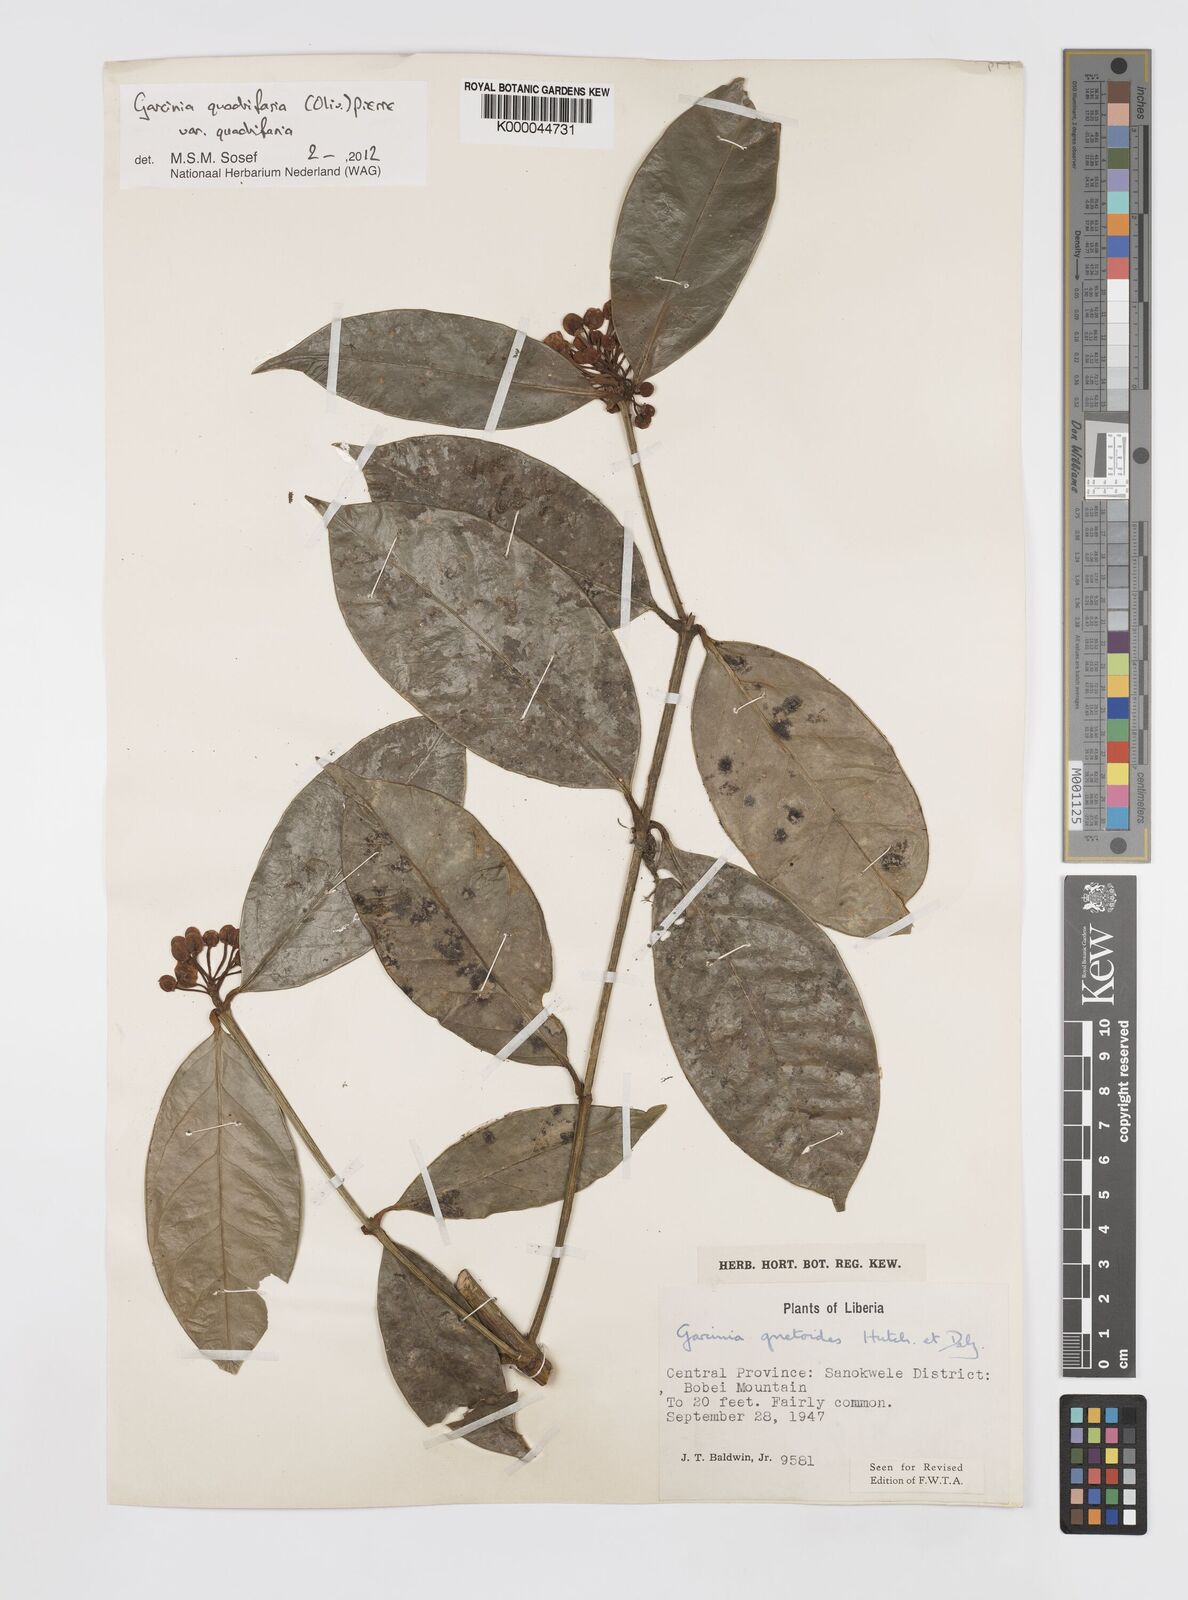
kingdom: Plantae
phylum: Tracheophyta
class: Magnoliopsida
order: Malpighiales
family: Clusiaceae
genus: Garcinia
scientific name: Garcinia gnetoides
